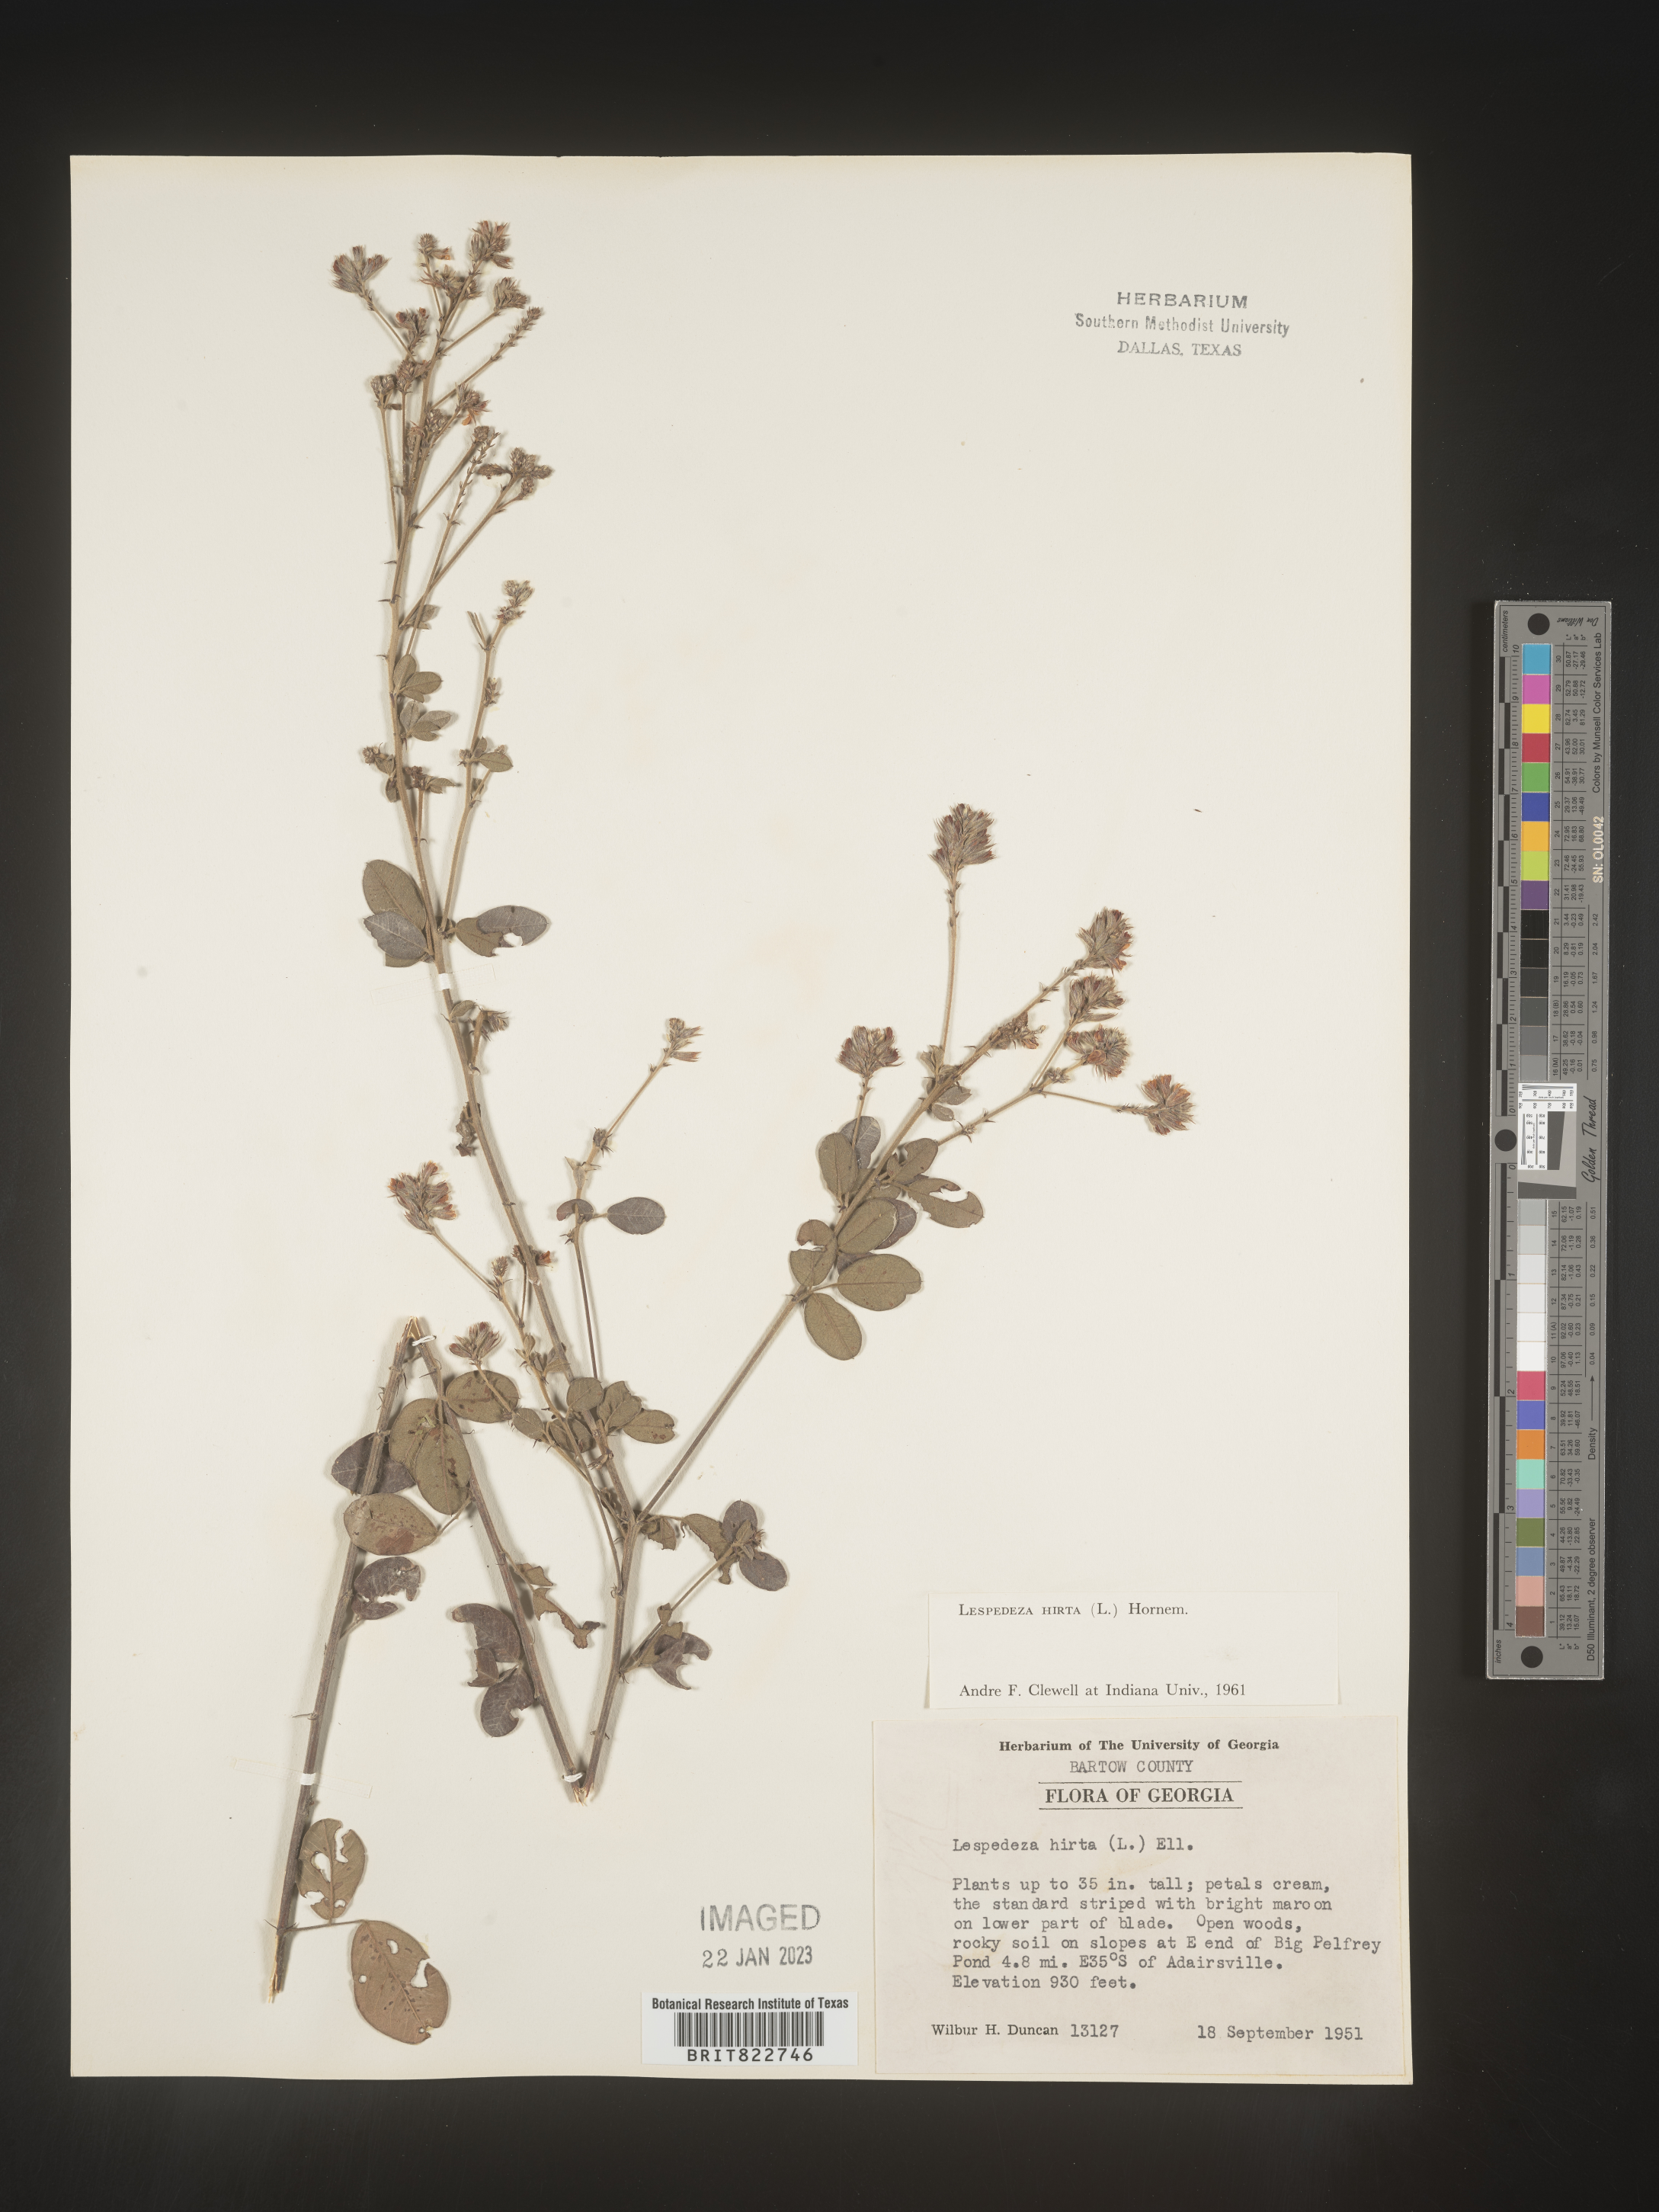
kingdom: Plantae
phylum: Tracheophyta
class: Magnoliopsida
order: Fabales
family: Fabaceae
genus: Lespedeza
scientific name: Lespedeza hirta
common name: Hairy lespedeza
